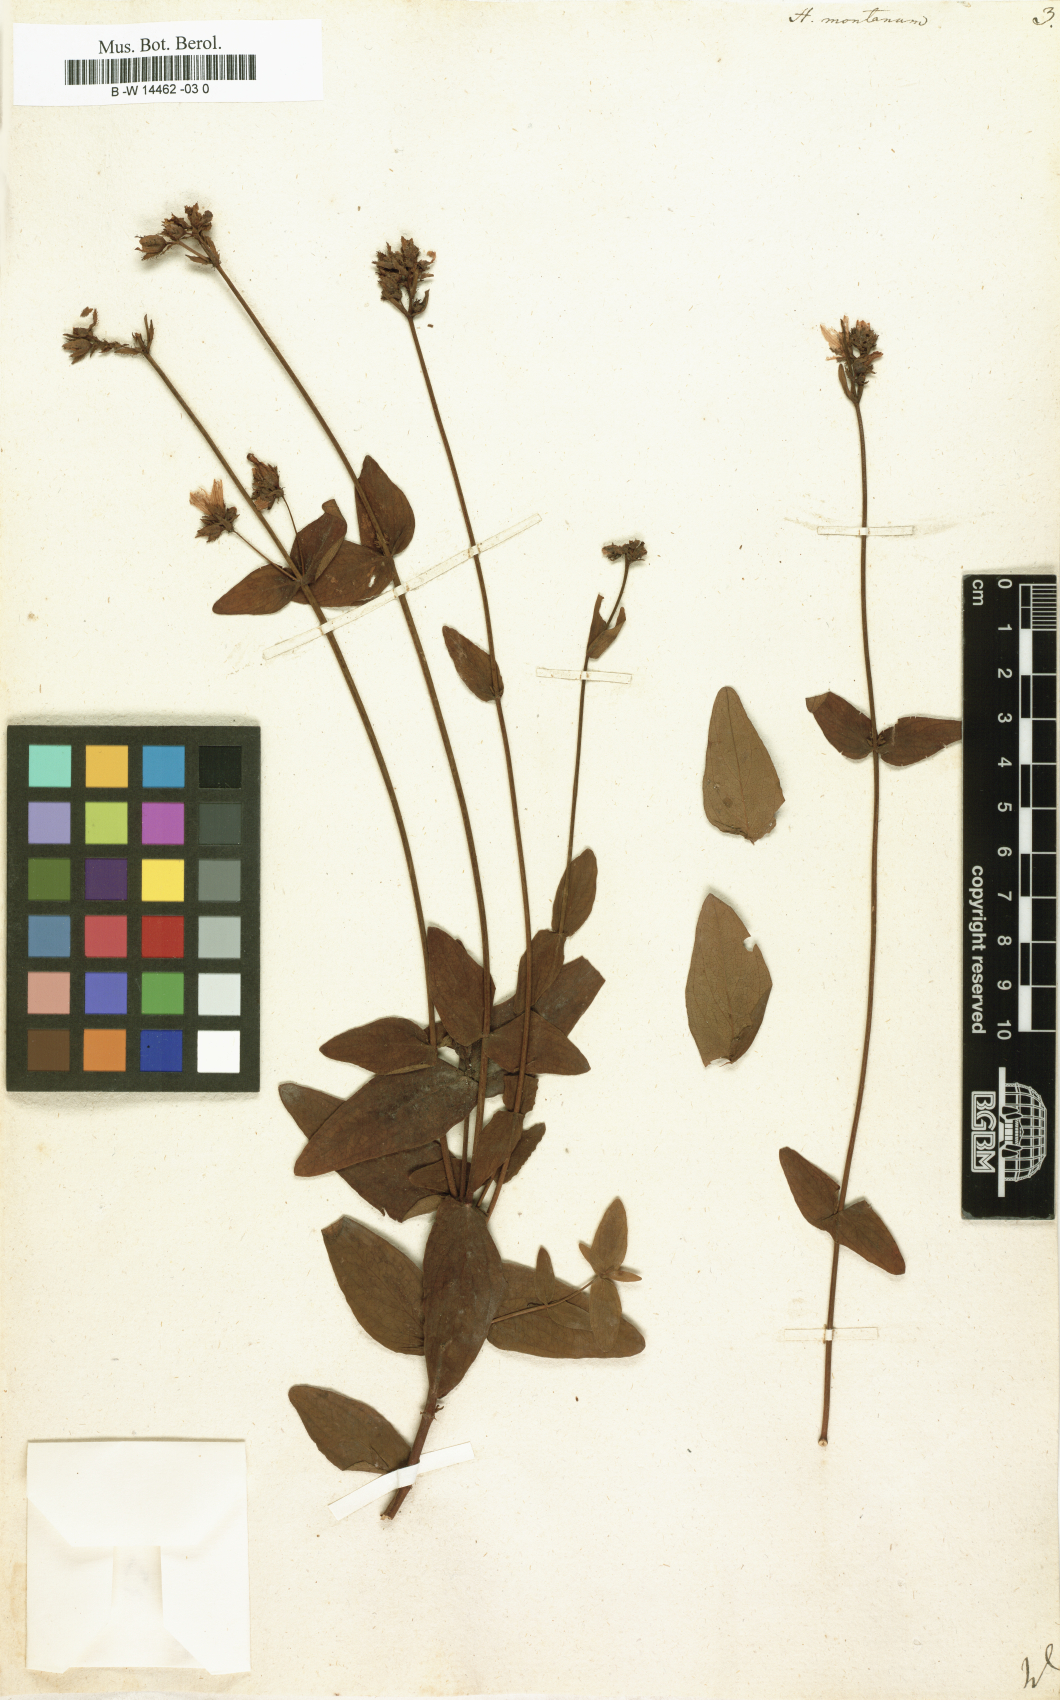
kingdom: Plantae
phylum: Tracheophyta
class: Magnoliopsida
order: Malpighiales
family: Hypericaceae
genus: Hypericum
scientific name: Hypericum montanum
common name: Pale st. john's-wort
